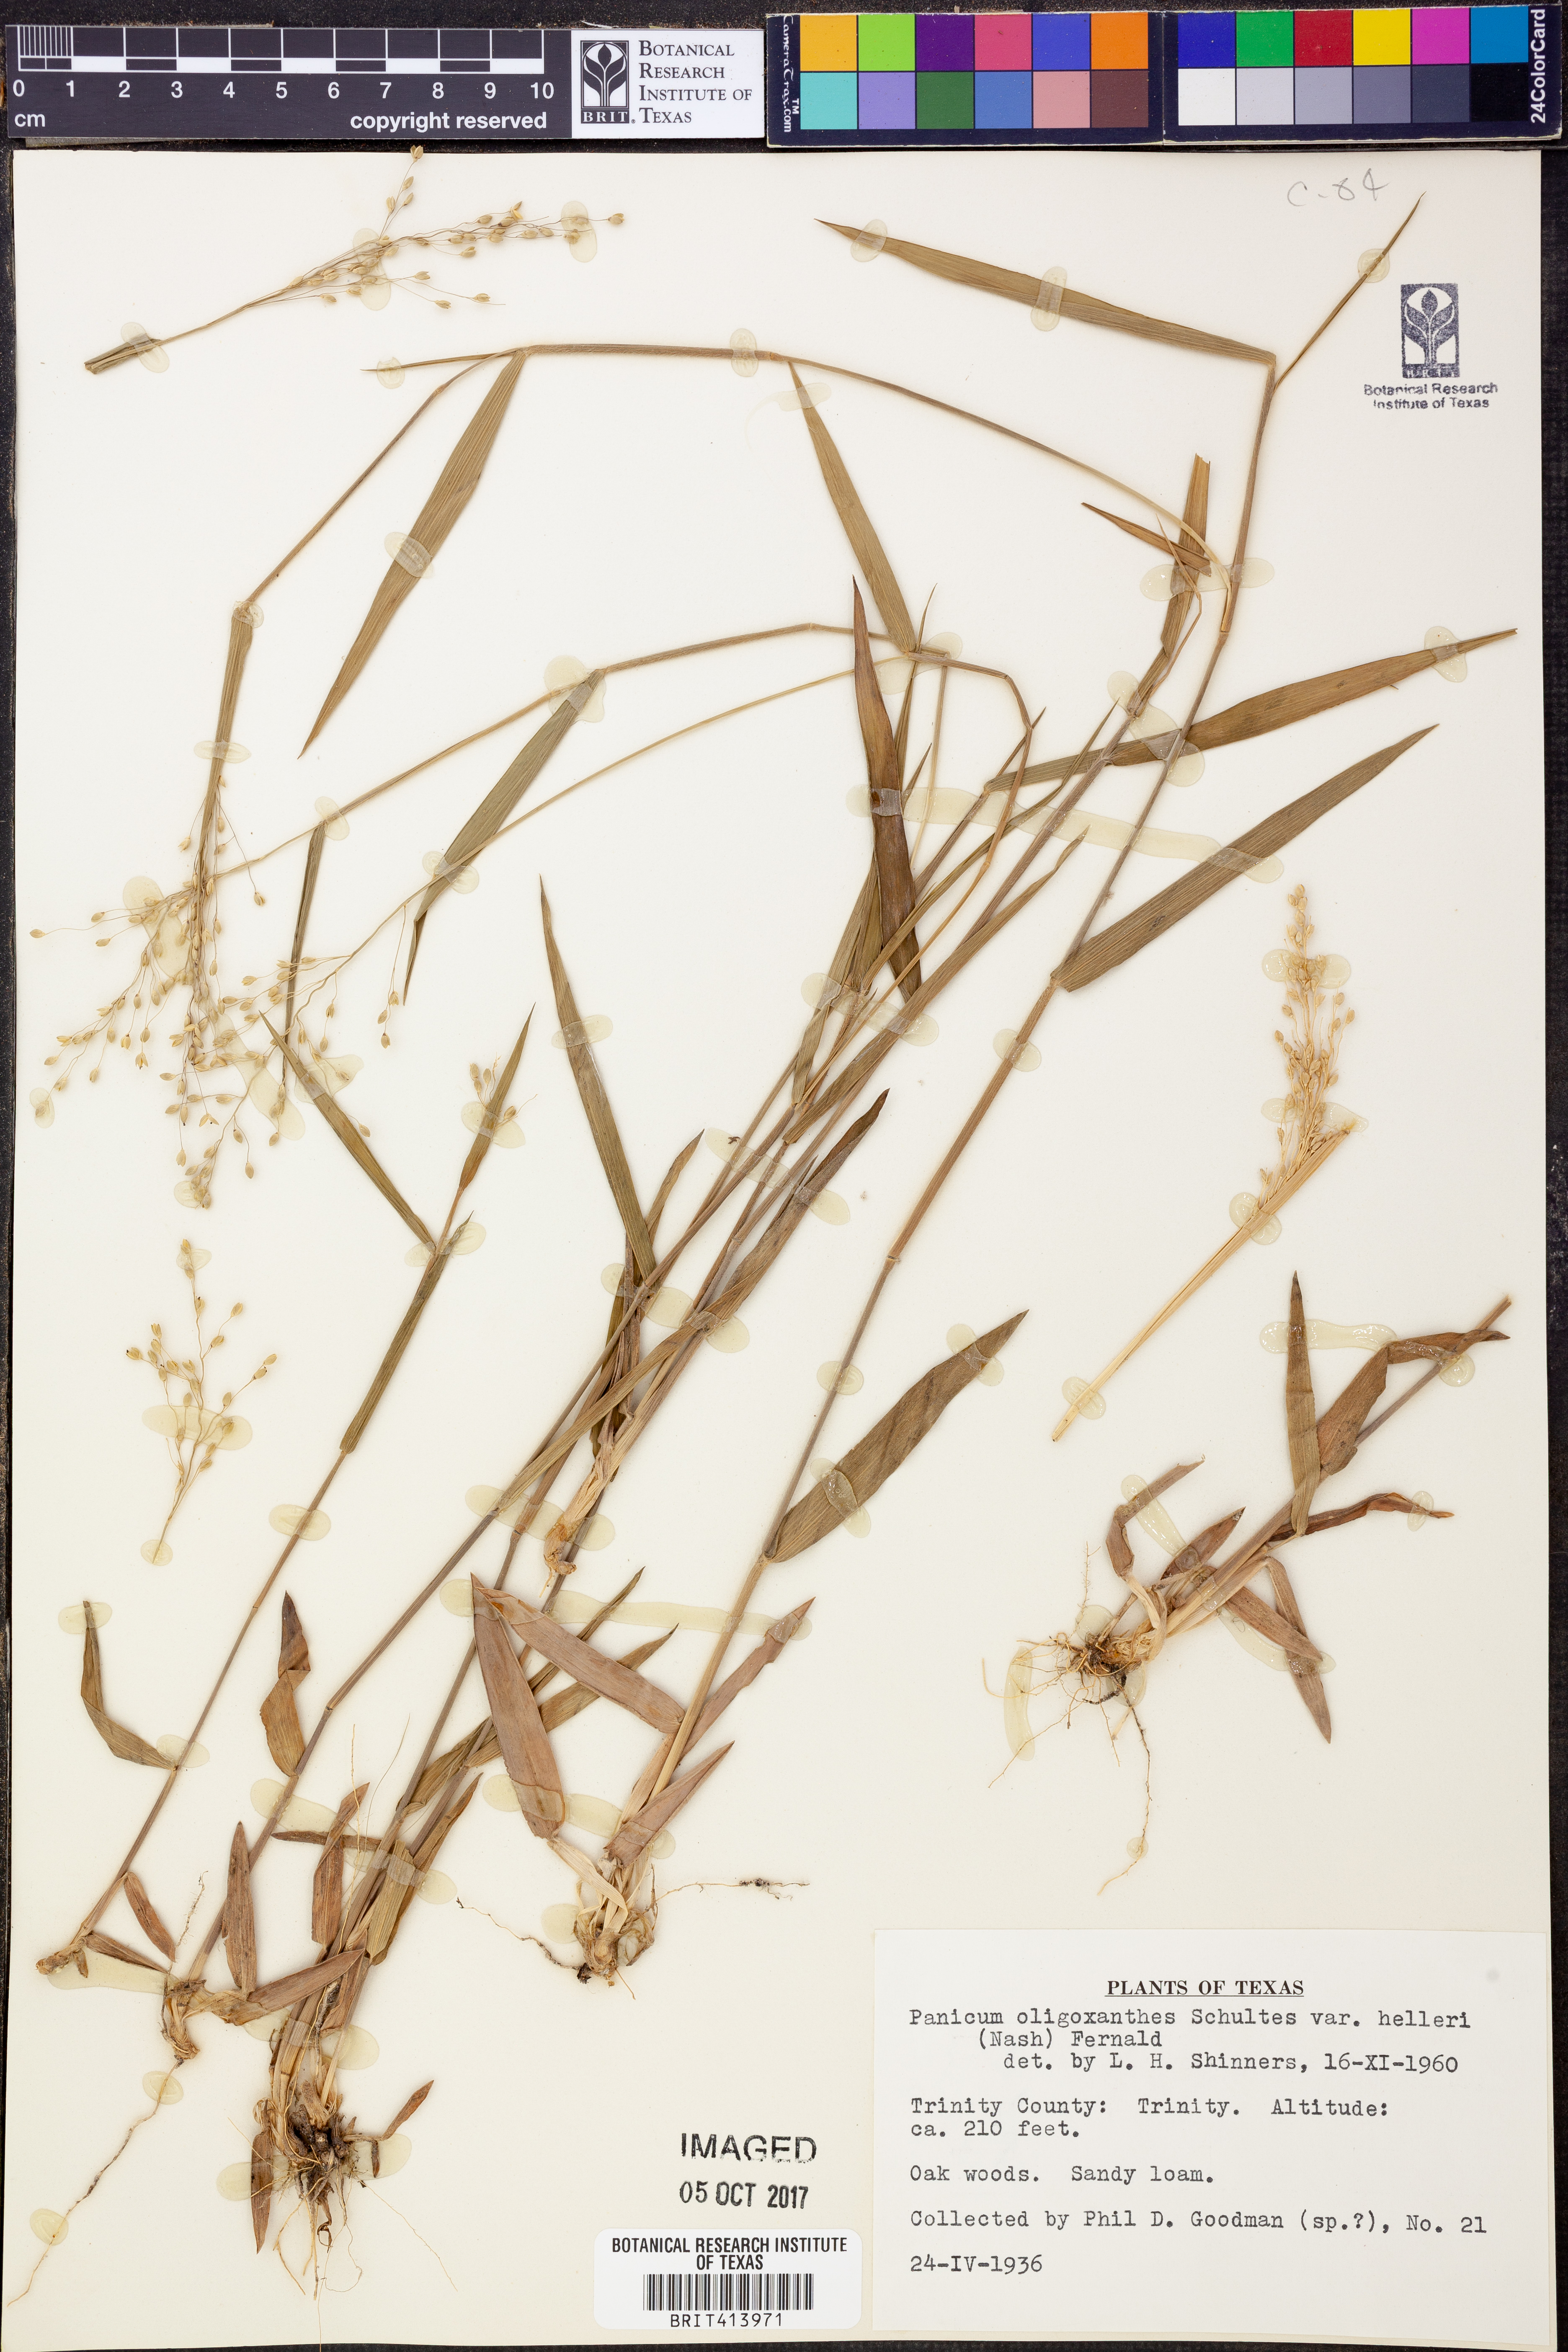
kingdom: Plantae
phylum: Tracheophyta
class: Liliopsida
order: Poales
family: Poaceae
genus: Dichanthelium
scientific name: Dichanthelium oligosanthes
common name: Few-anther obscuregrass
